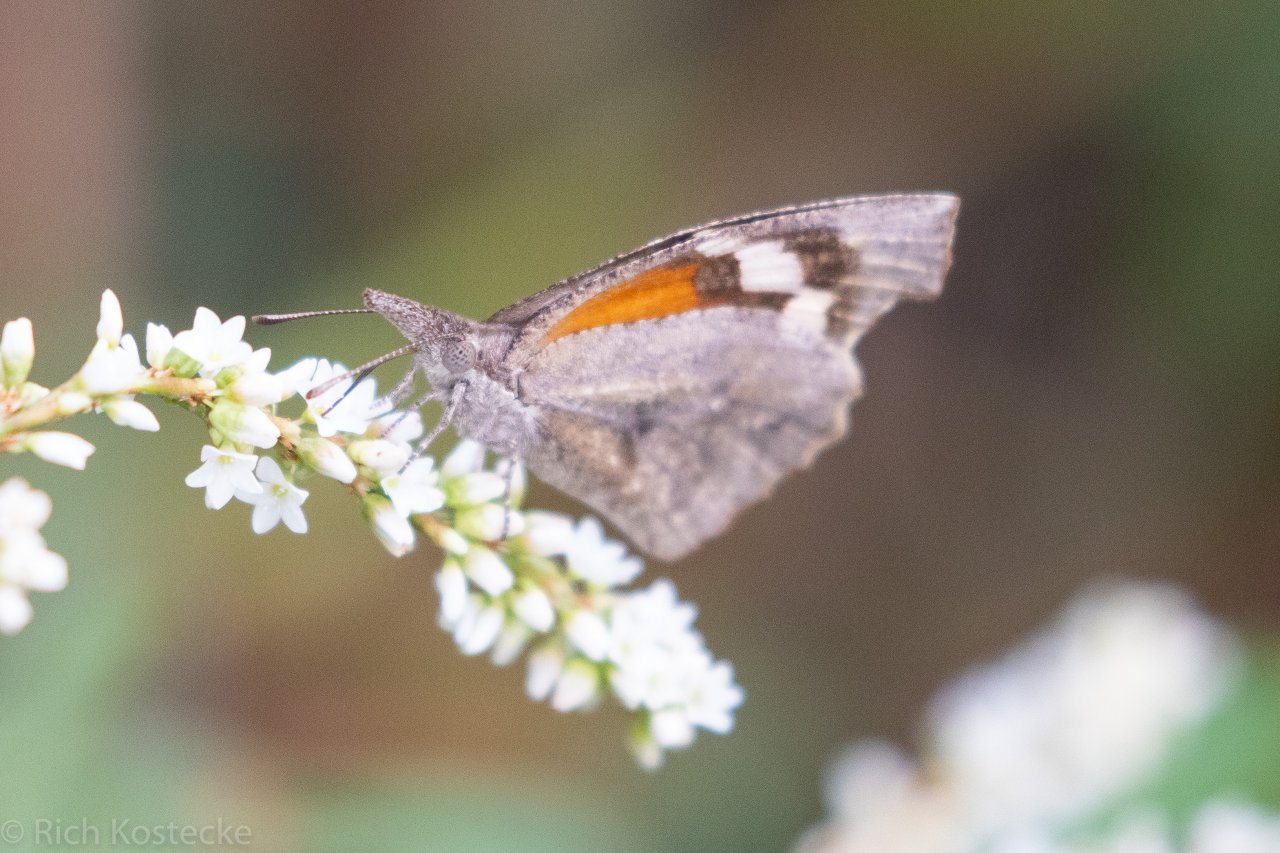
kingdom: Animalia
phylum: Arthropoda
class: Insecta
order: Lepidoptera
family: Nymphalidae
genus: Libytheana
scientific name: Libytheana carinenta
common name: American Snout
